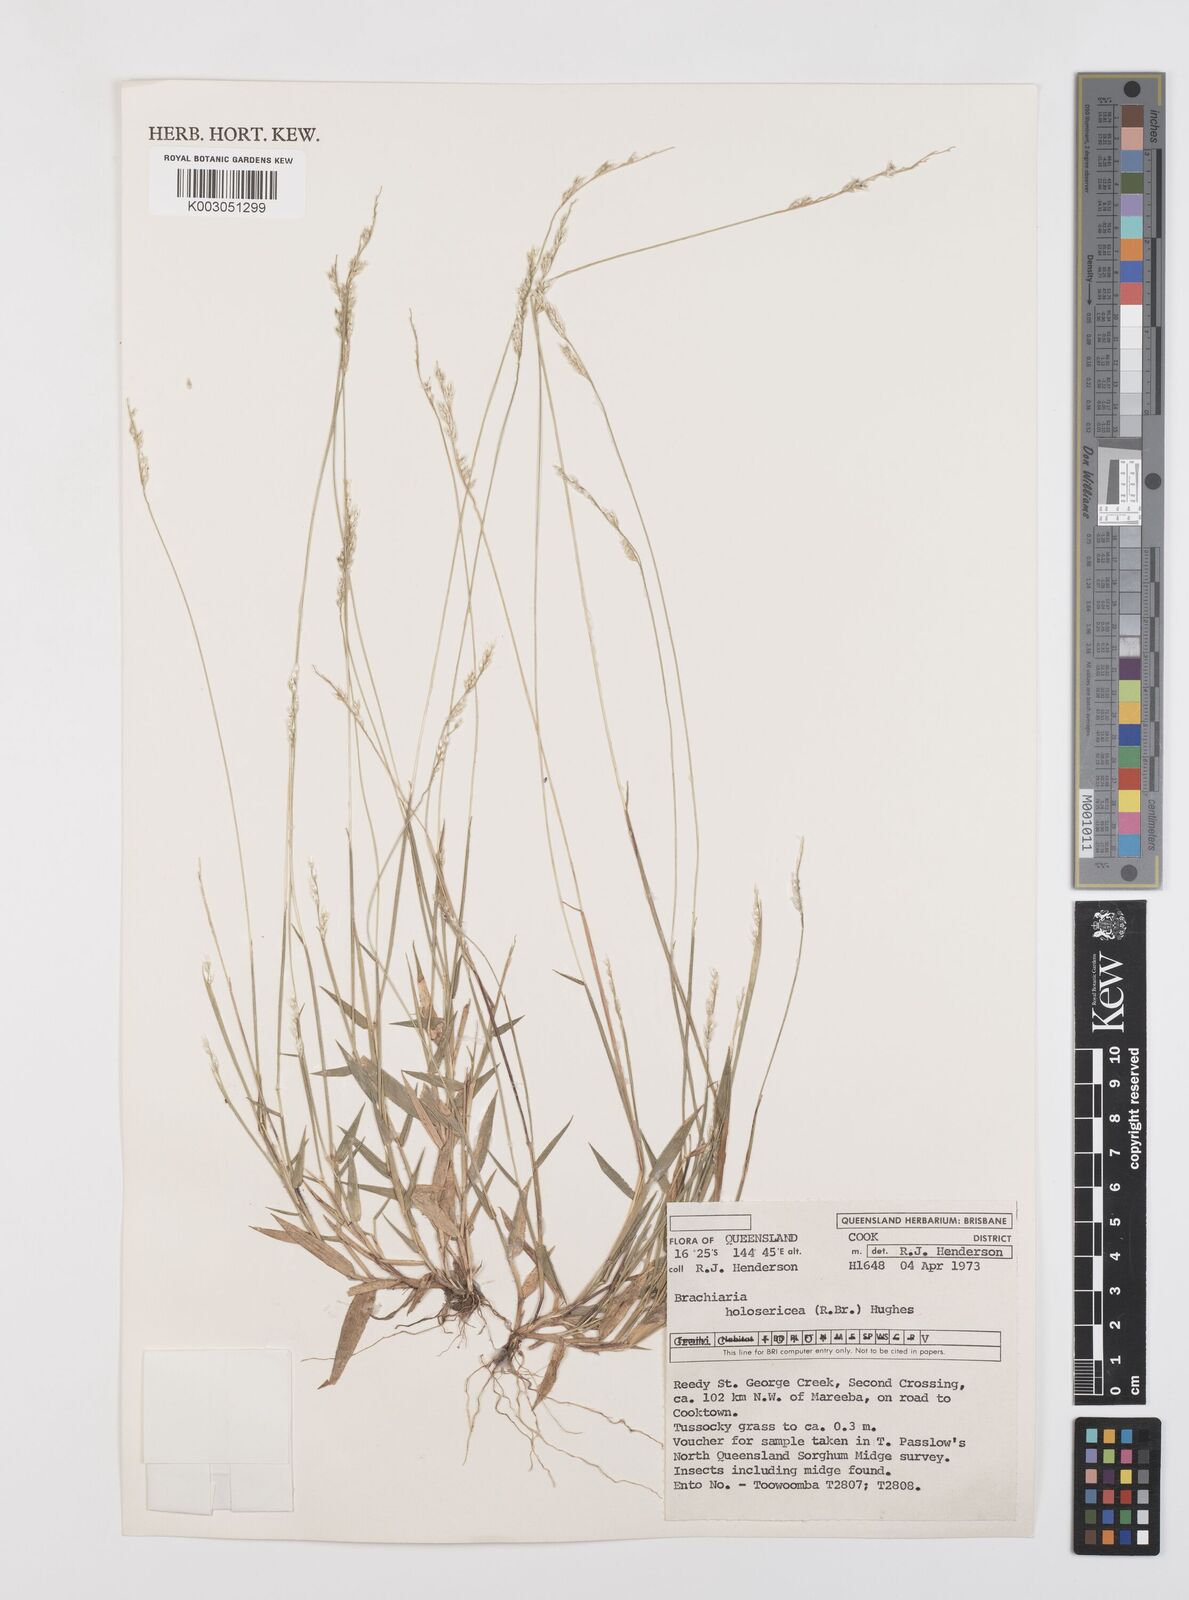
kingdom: Plantae
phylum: Tracheophyta
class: Liliopsida
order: Poales
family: Poaceae
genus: Urochloa
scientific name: Urochloa holosericea
